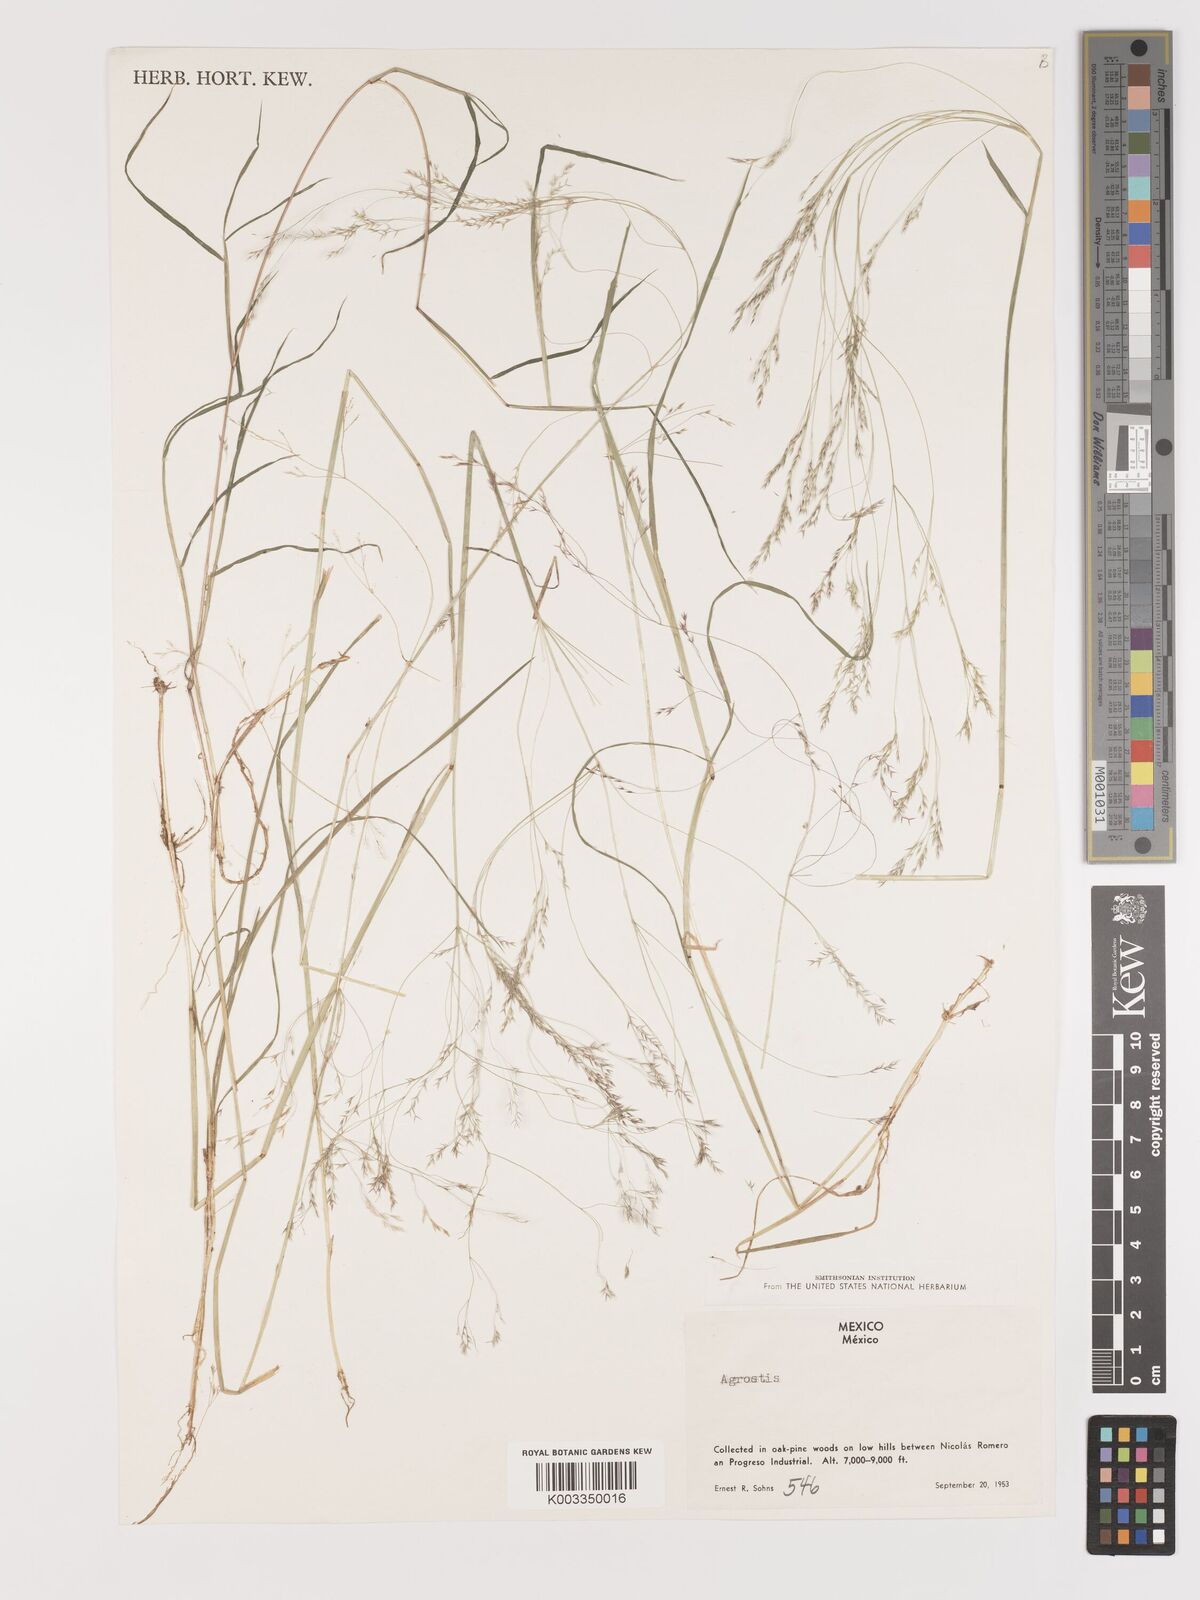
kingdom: Plantae
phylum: Tracheophyta
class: Liliopsida
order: Poales
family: Poaceae
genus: Agrostis
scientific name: Agrostis
